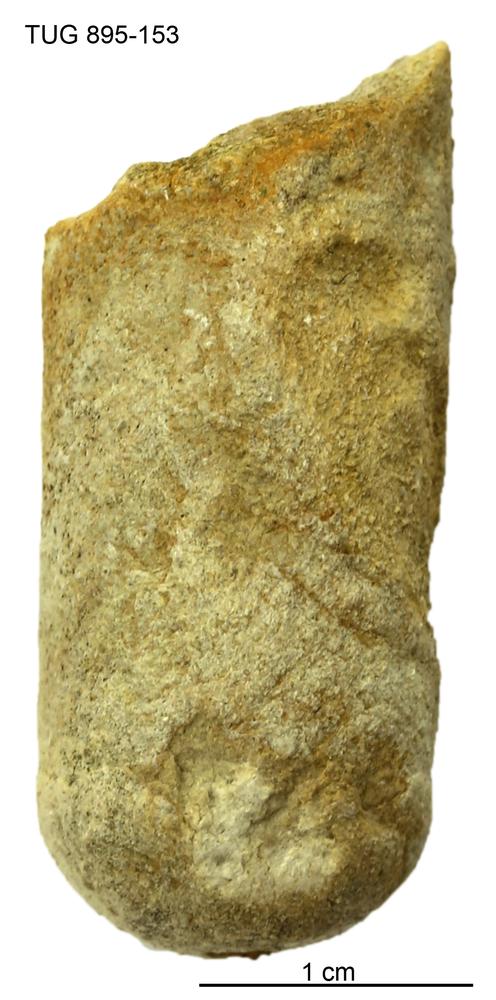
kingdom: Animalia
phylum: Mollusca
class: Cephalopoda
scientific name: Cephalopoda
